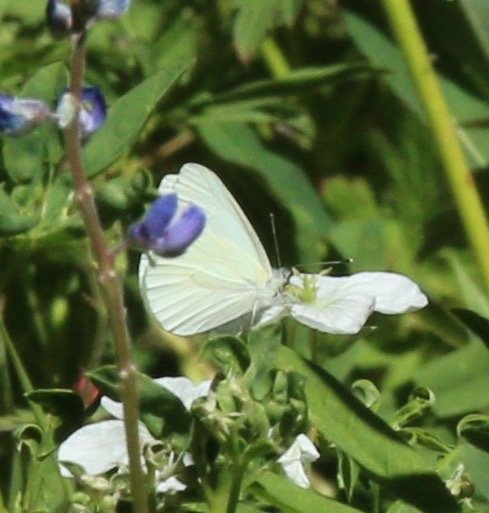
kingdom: Animalia
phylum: Arthropoda
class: Insecta
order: Lepidoptera
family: Pieridae
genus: Pieris
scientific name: Pieris marginalis
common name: Margined White
